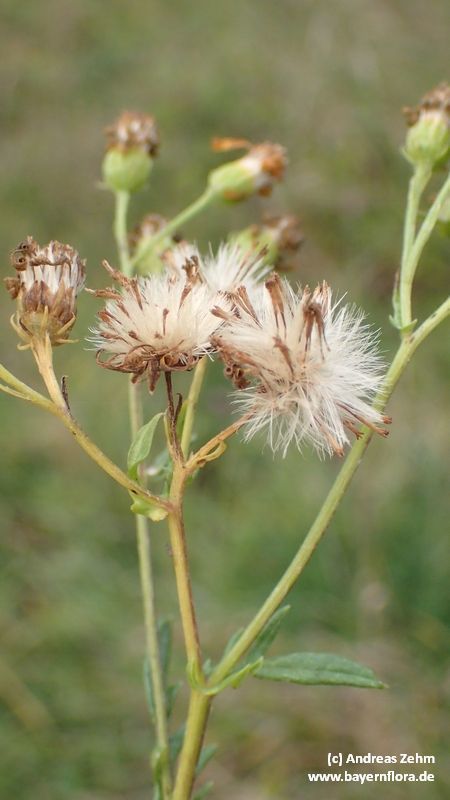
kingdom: Plantae
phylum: Tracheophyta
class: Magnoliopsida
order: Asterales
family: Asteraceae
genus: Jacobaea
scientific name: Jacobaea vulgaris
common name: Stinking willie
